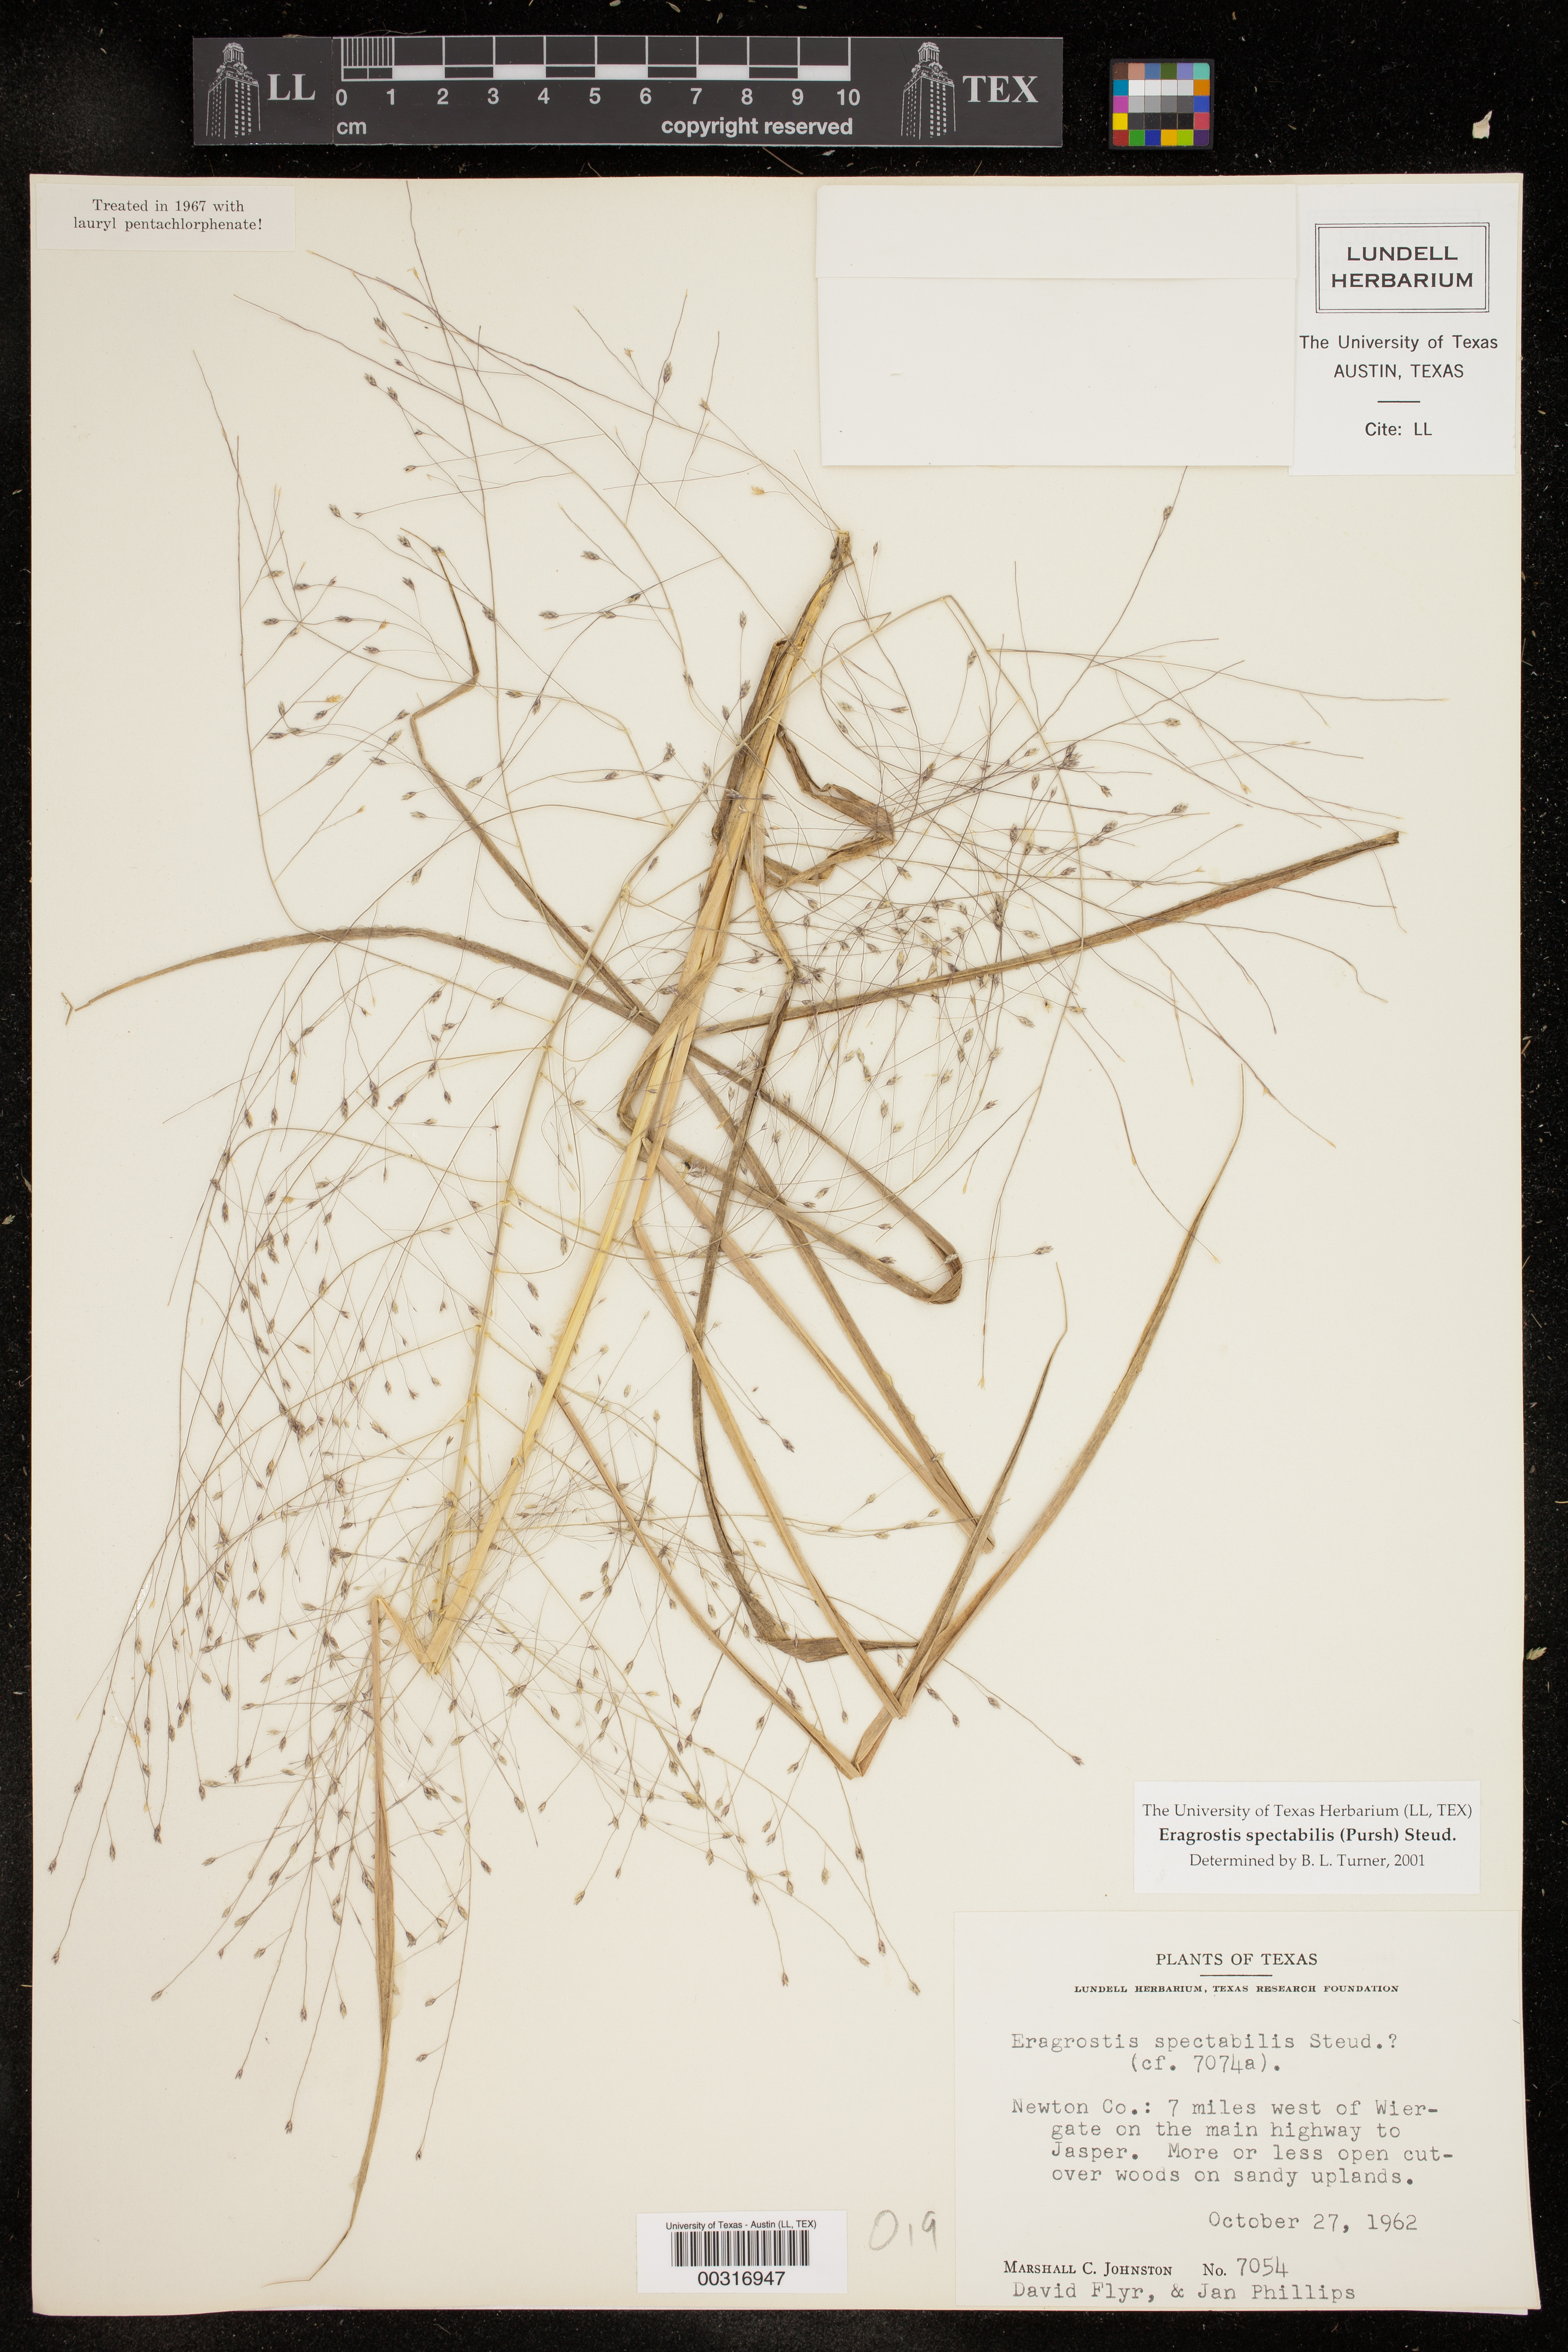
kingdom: Plantae
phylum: Tracheophyta
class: Liliopsida
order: Poales
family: Poaceae
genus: Eragrostis
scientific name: Eragrostis spectabilis
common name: Petticoat-climber
